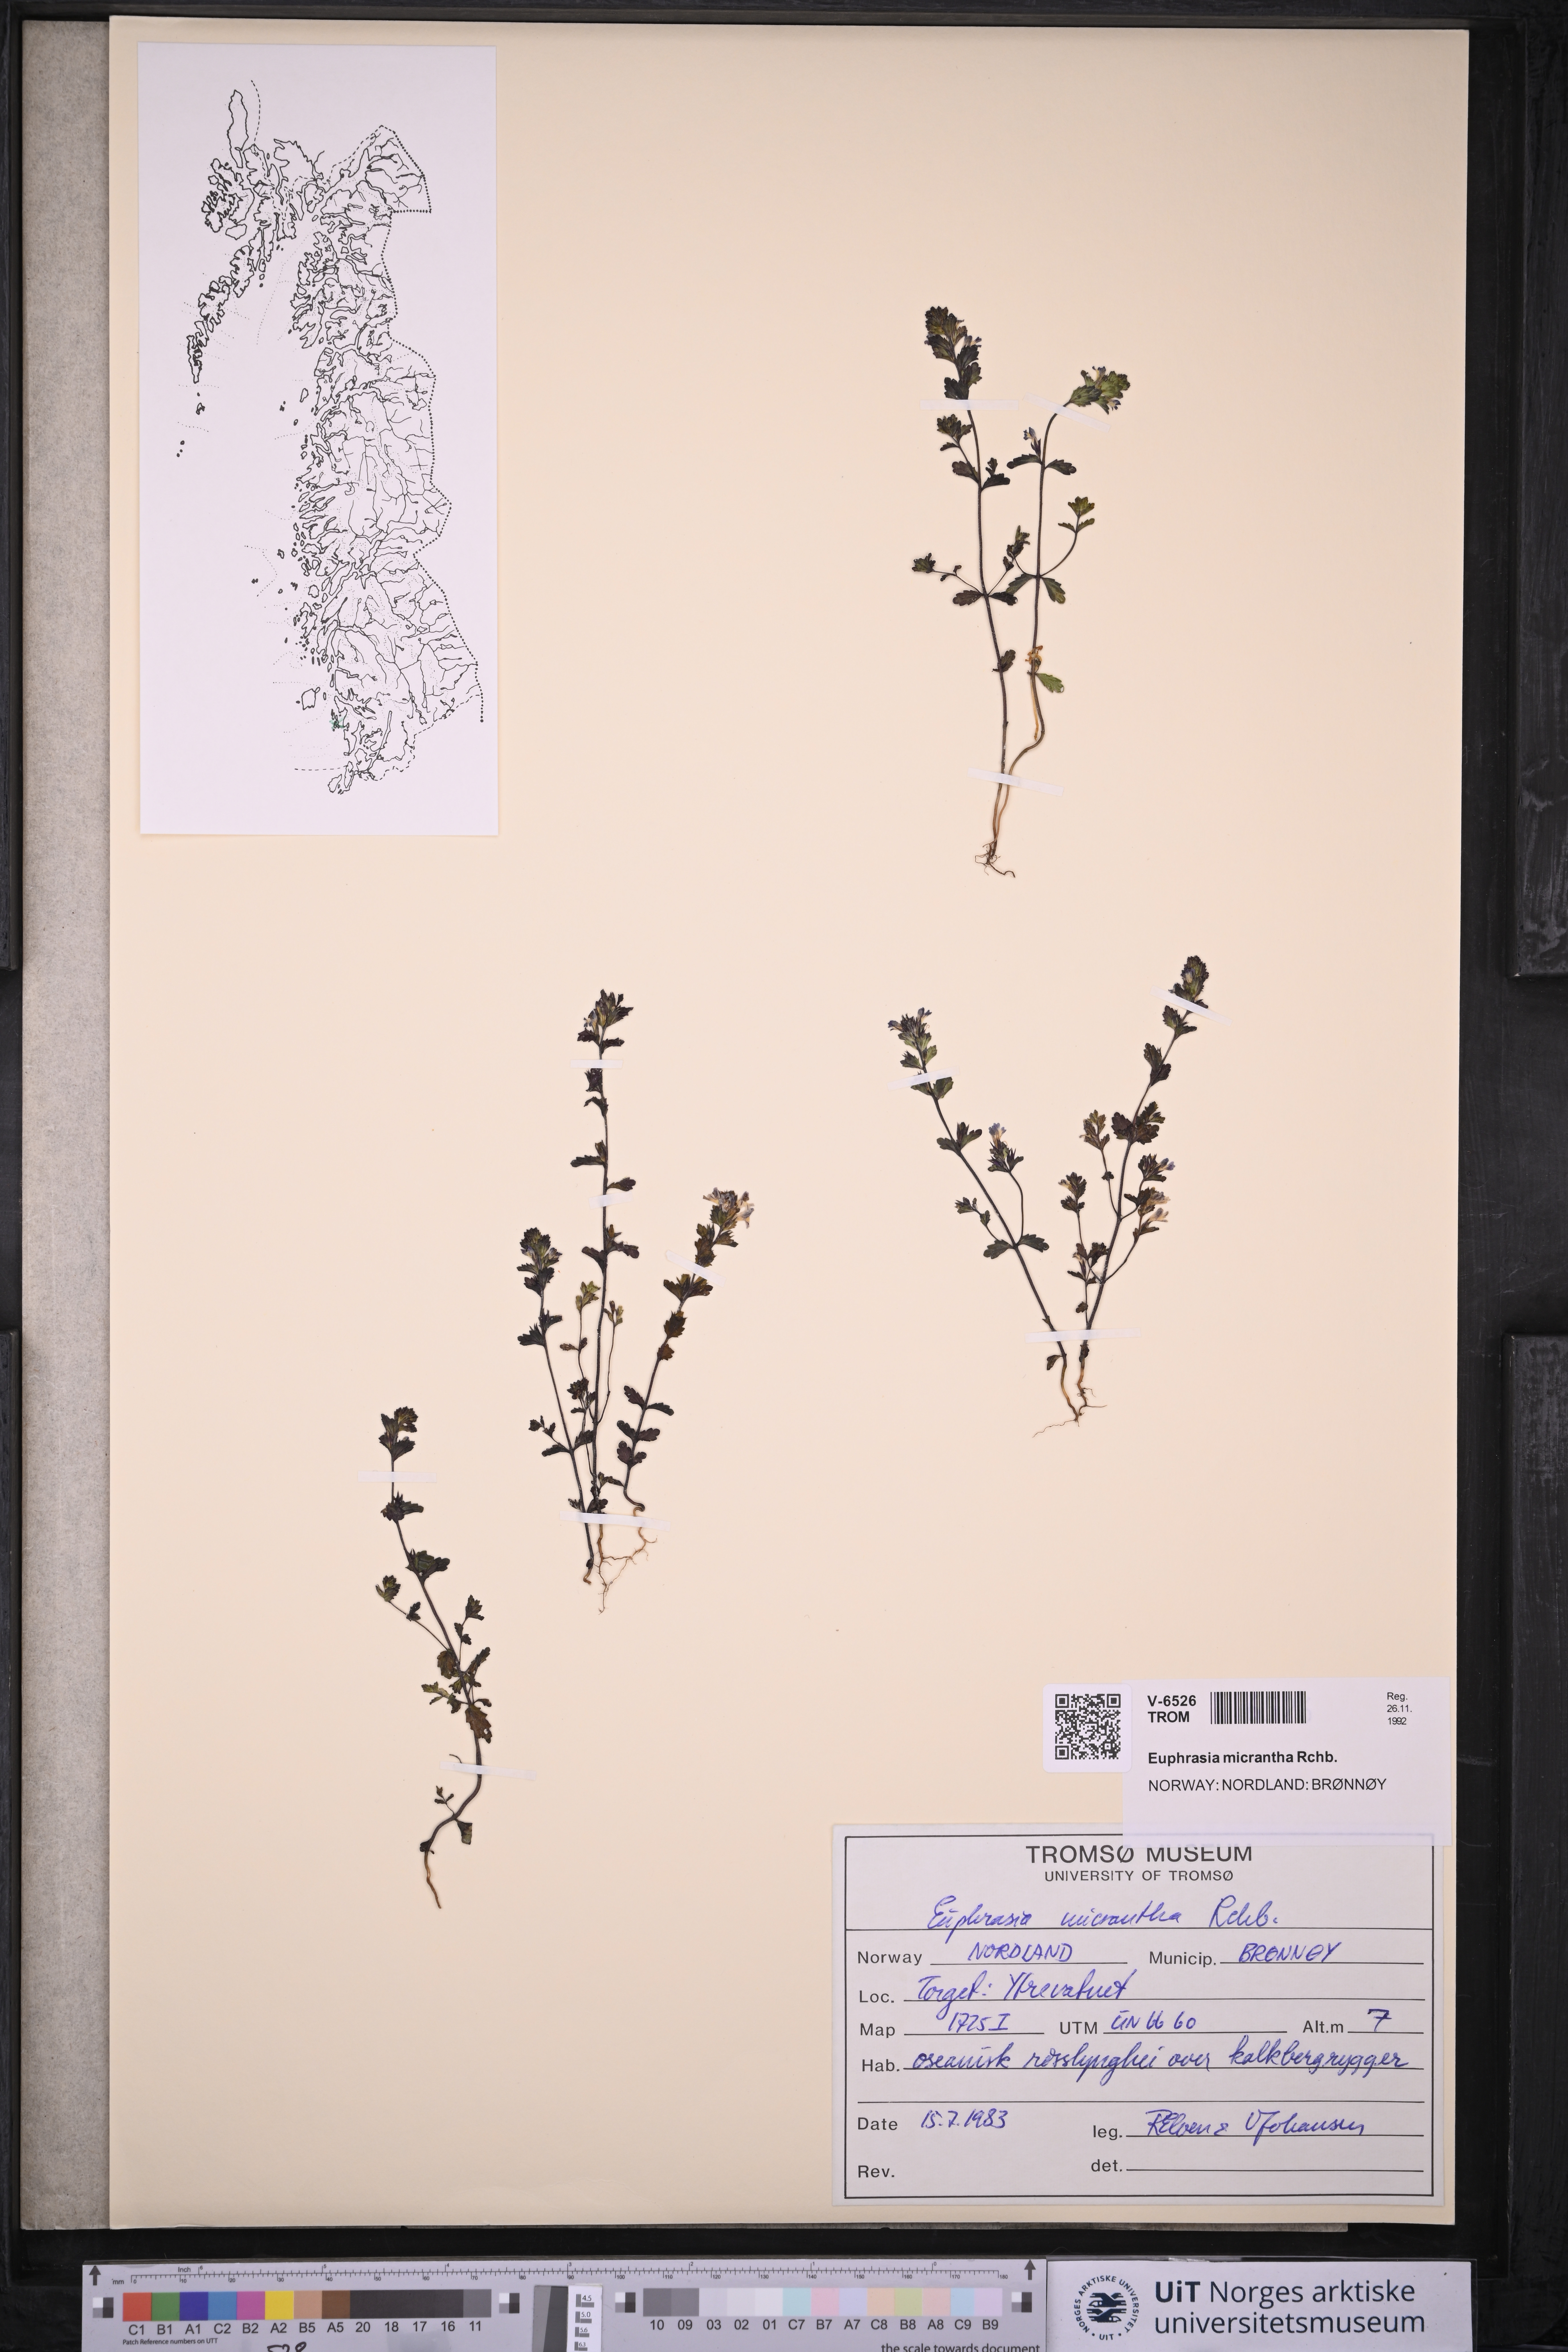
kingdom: Plantae
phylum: Tracheophyta
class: Magnoliopsida
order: Lamiales
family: Orobanchaceae
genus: Euphrasia
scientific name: Euphrasia micrantha
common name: Northern eyebright
